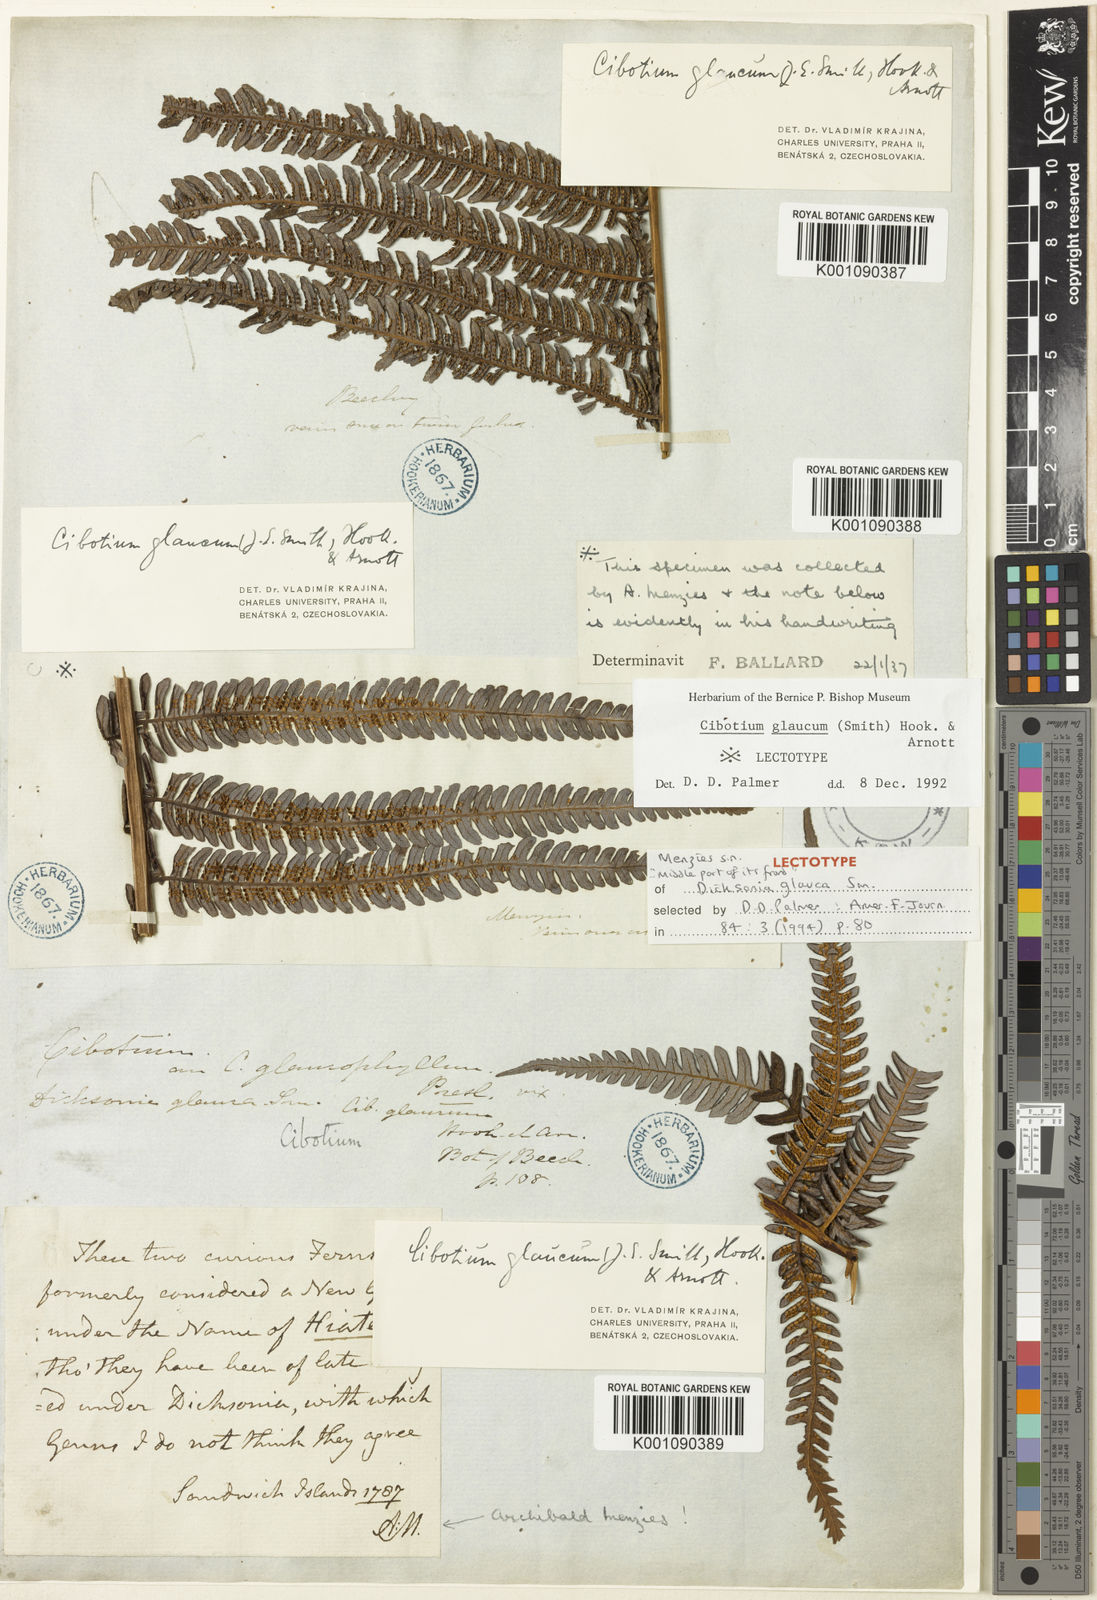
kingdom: Plantae
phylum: Tracheophyta
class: Polypodiopsida
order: Cyatheales
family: Cibotiaceae
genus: Cibotium
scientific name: Cibotium glaucum
